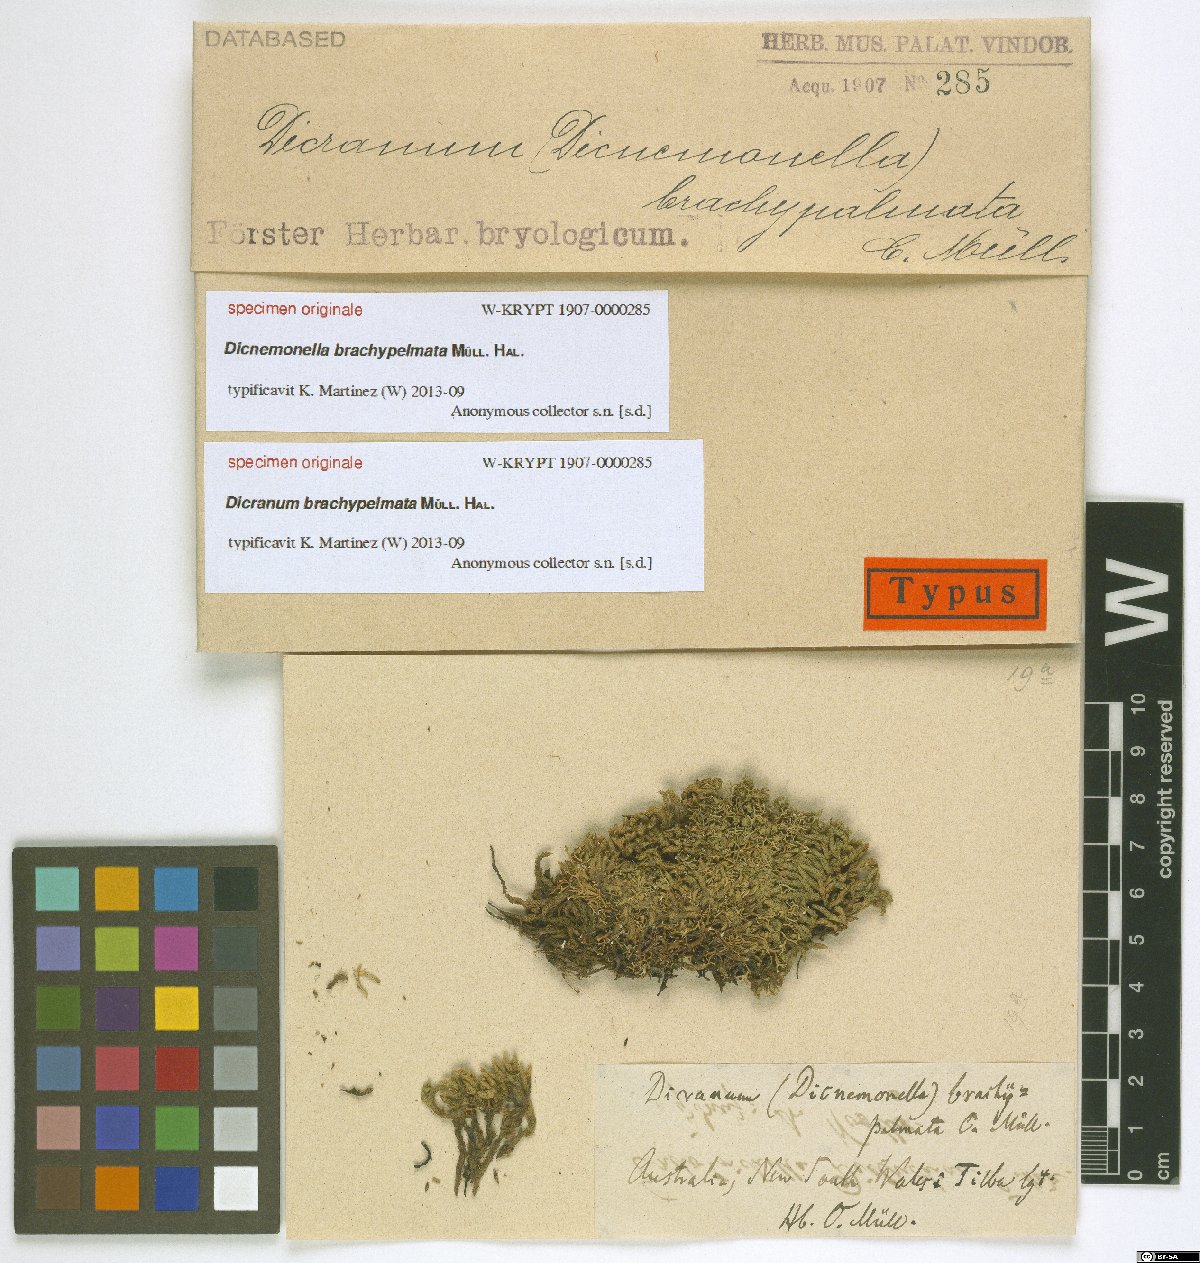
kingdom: Plantae
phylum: Bryophyta
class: Bryopsida
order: Dicranales
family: Dicranaceae
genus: Dicranoloma
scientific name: Dicranoloma
